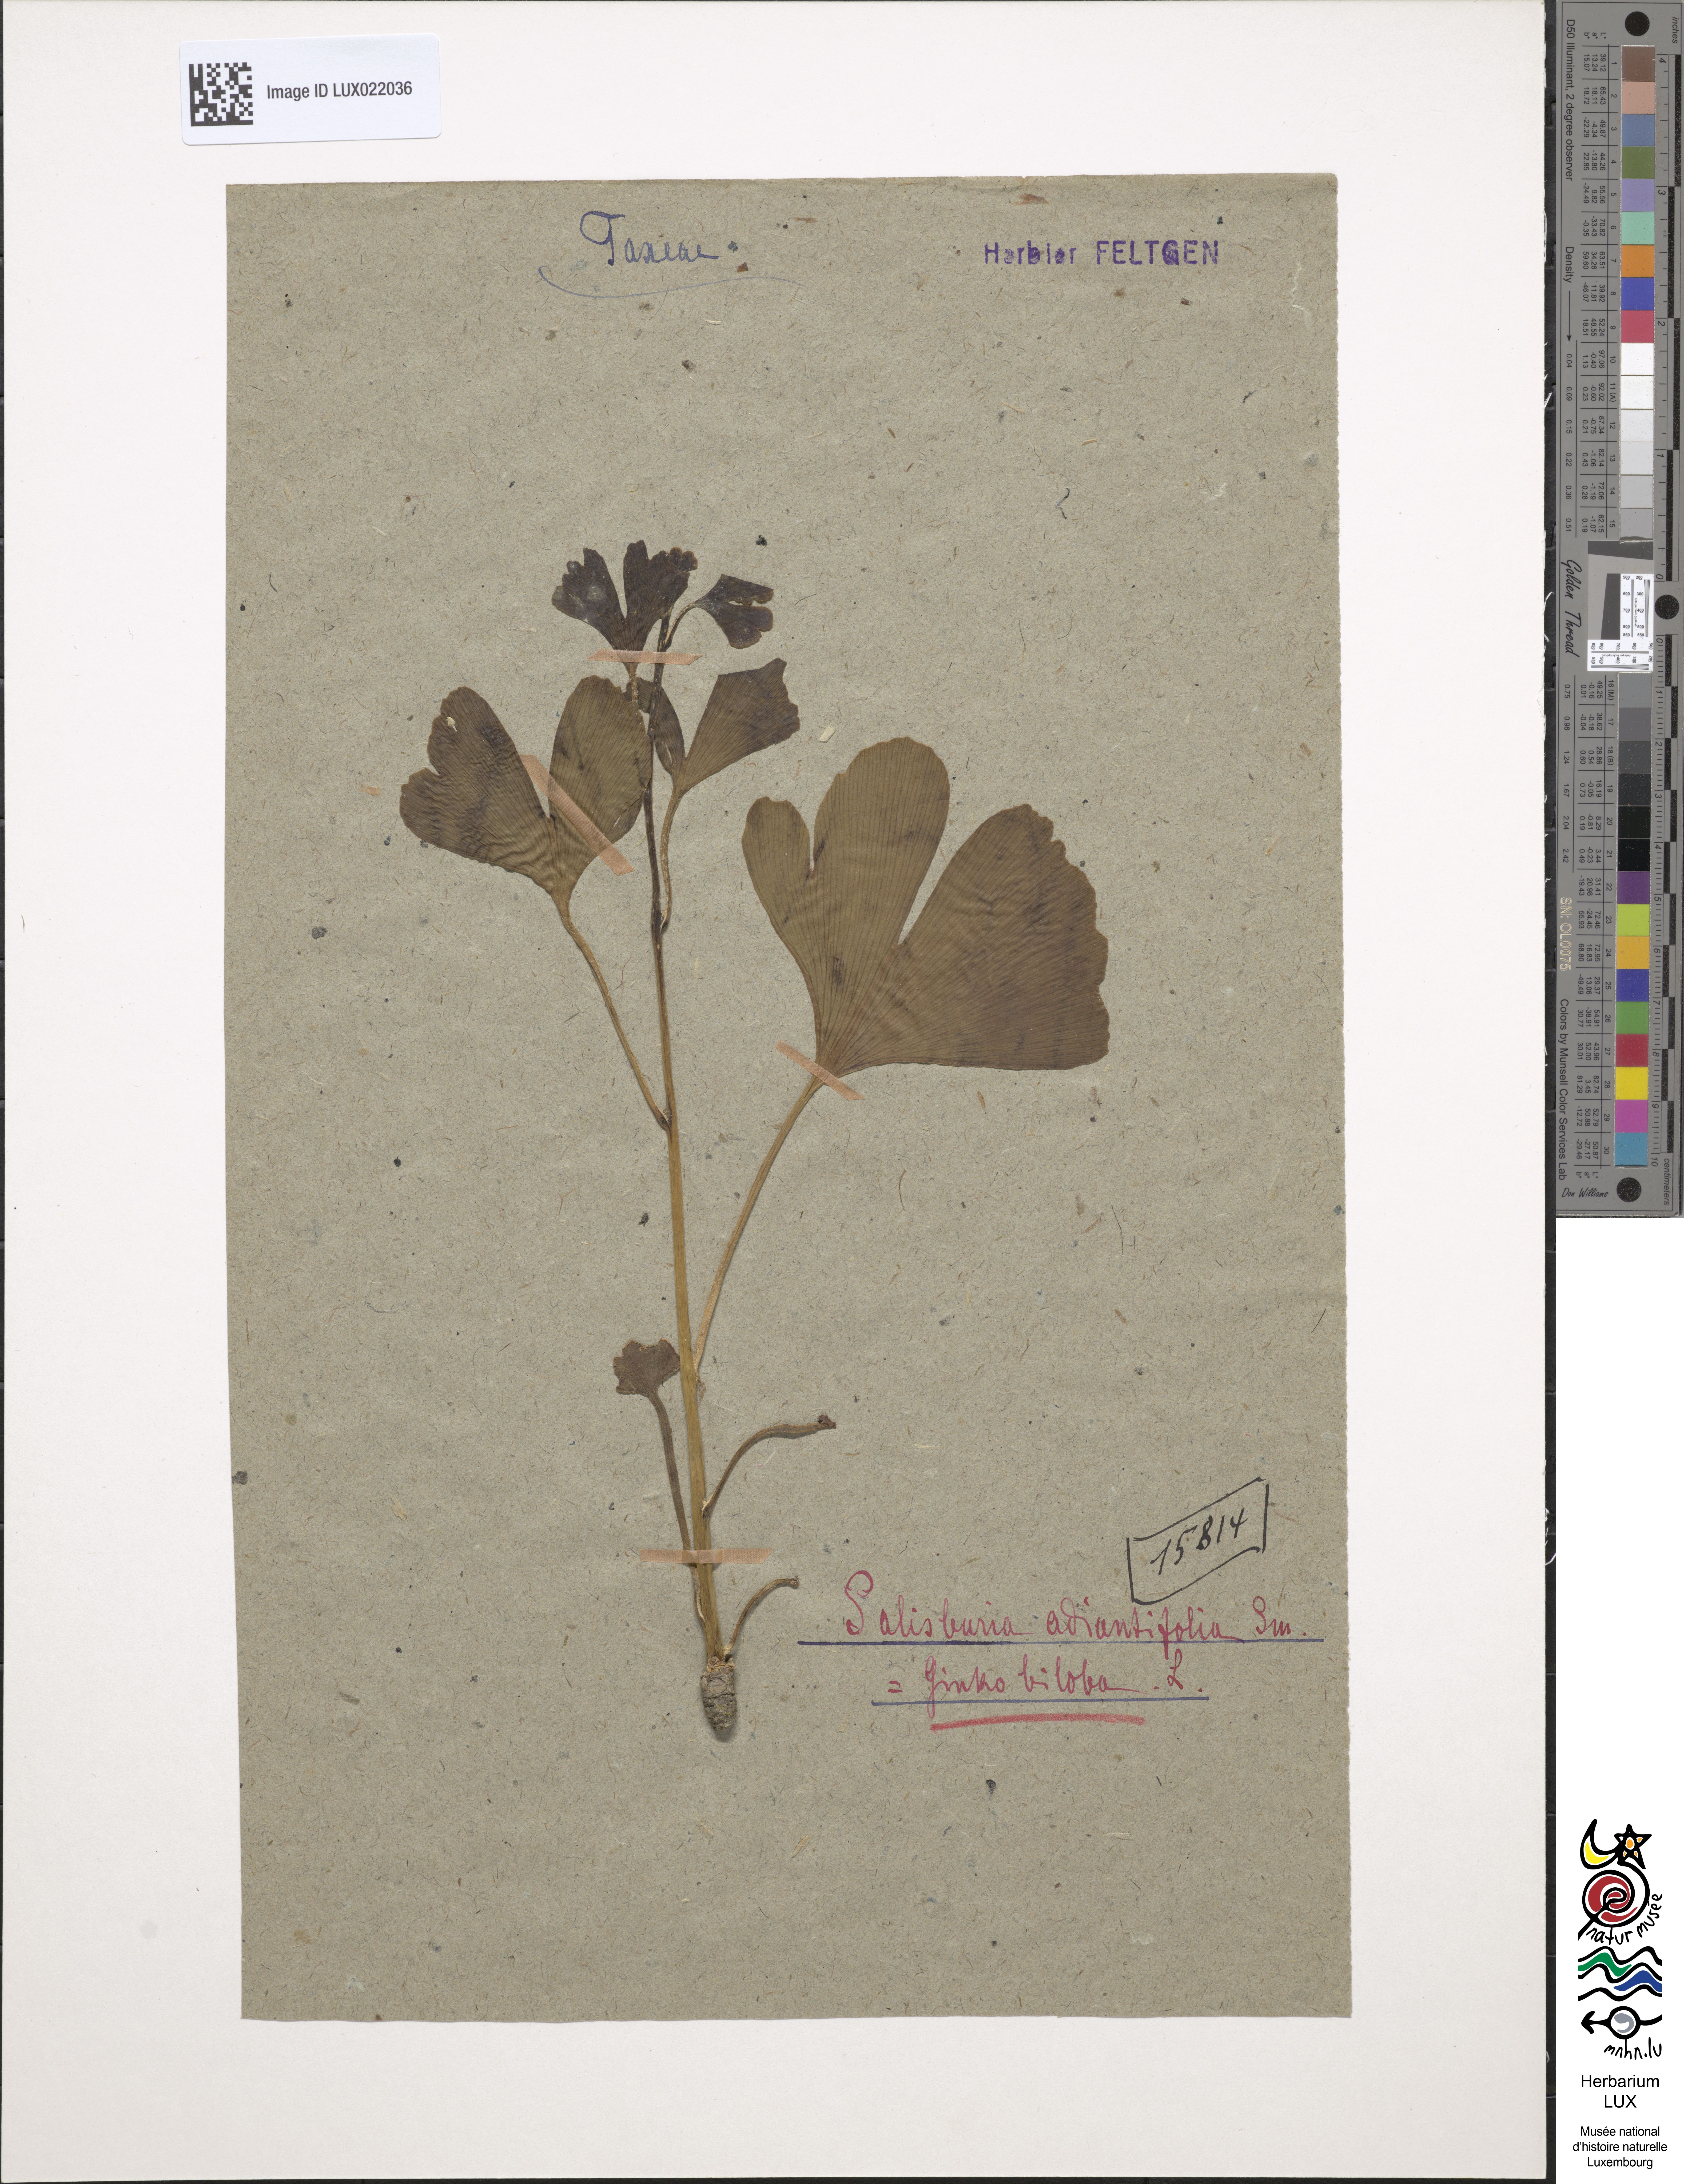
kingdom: Plantae
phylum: Tracheophyta
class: Ginkgoopsida
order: Ginkgoales
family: Ginkgoaceae
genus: Ginkgo
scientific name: Ginkgo biloba
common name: Ginkgo
